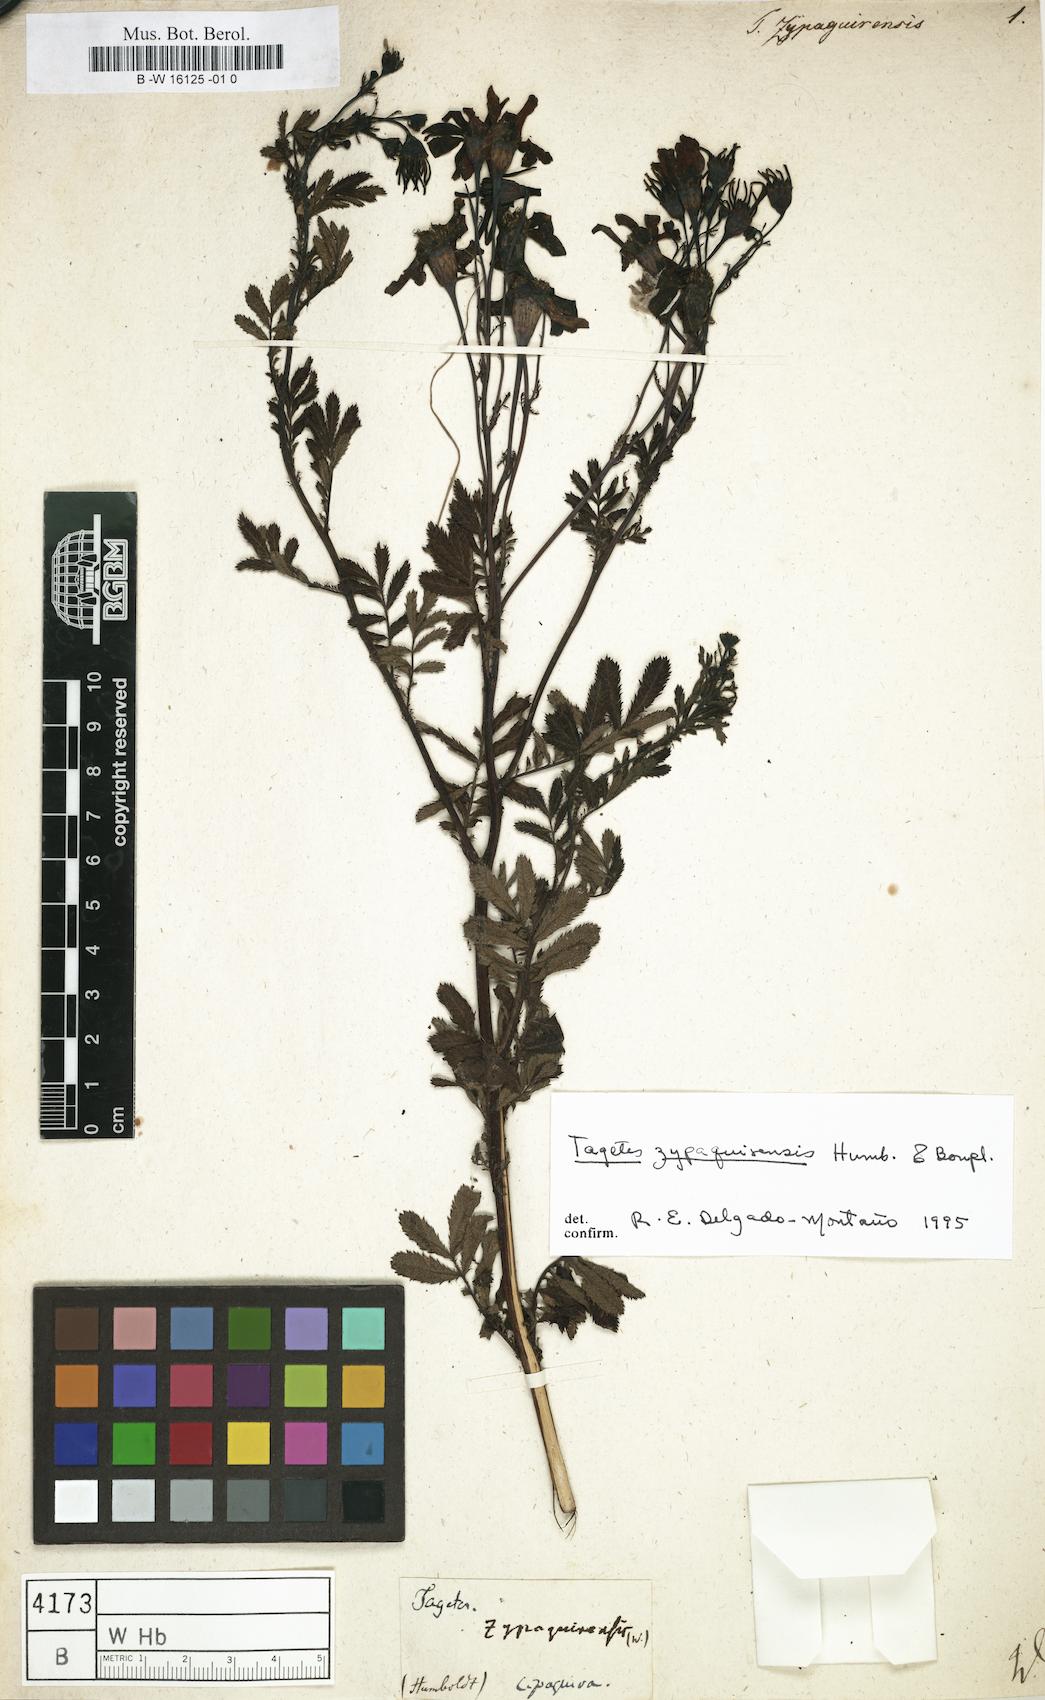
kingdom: Plantae
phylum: Tracheophyta
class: Magnoliopsida
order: Asterales
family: Asteraceae
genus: Tagetes
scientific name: Tagetes zypaquirensis
